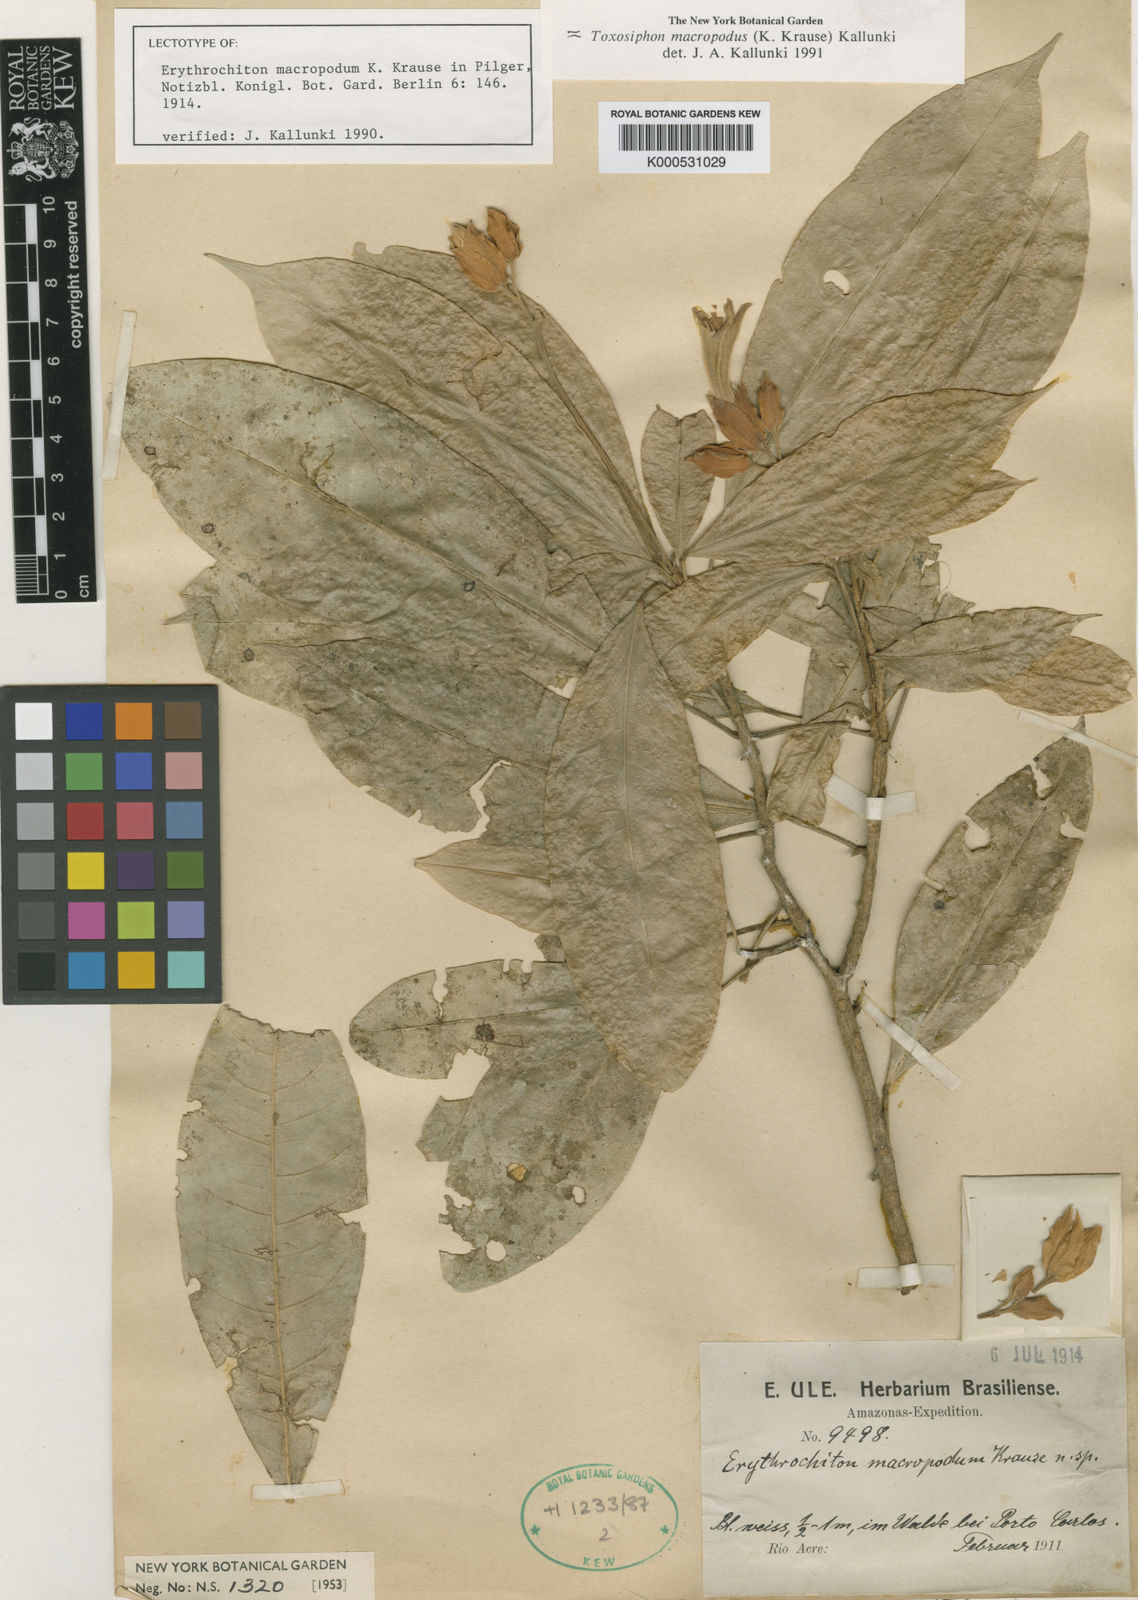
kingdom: Plantae
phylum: Tracheophyta
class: Magnoliopsida
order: Sapindales
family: Rutaceae
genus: Toxosiphon
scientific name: Toxosiphon macropodus
